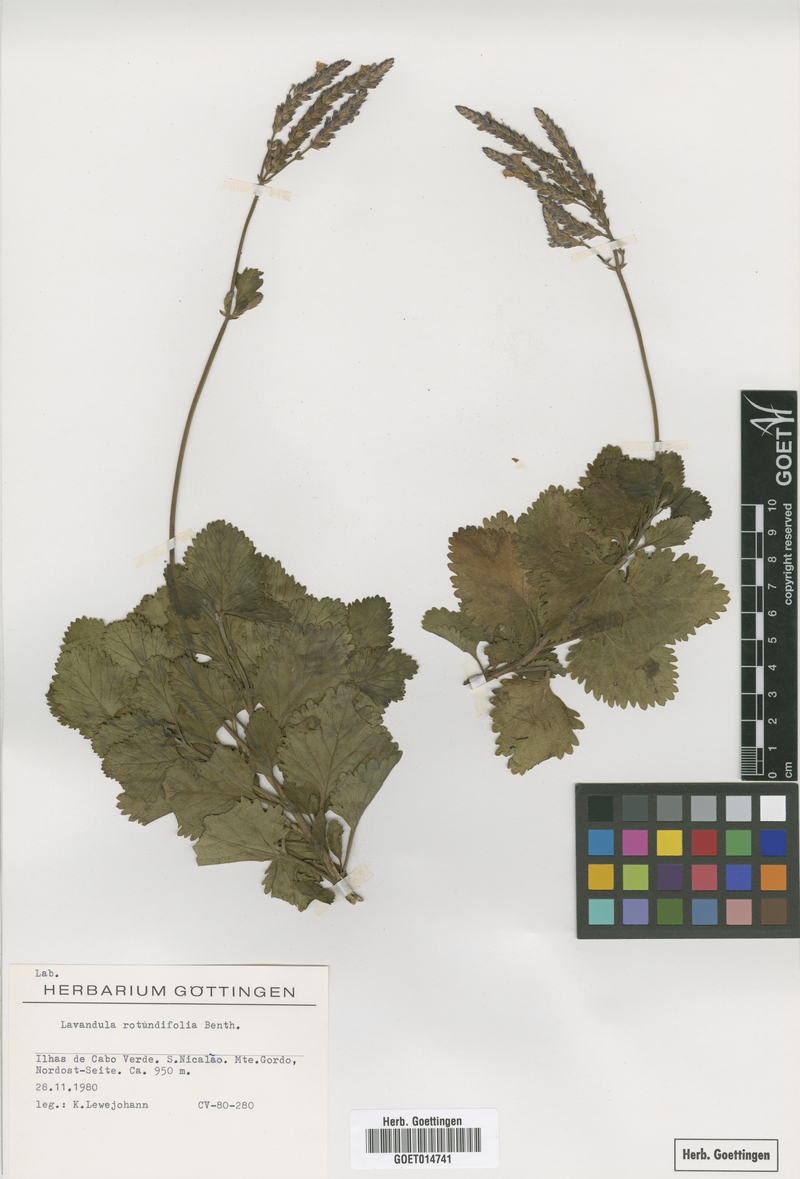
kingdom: Plantae
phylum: Tracheophyta
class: Magnoliopsida
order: Lamiales
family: Lamiaceae
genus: Lavandula
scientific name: Lavandula rotundifolia
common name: Round-leaf lavender
